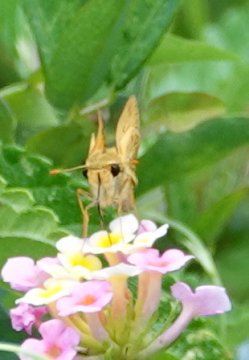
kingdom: Animalia
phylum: Arthropoda
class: Insecta
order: Lepidoptera
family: Hesperiidae
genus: Hylephila
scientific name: Hylephila phyleus
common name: Fiery Skipper
